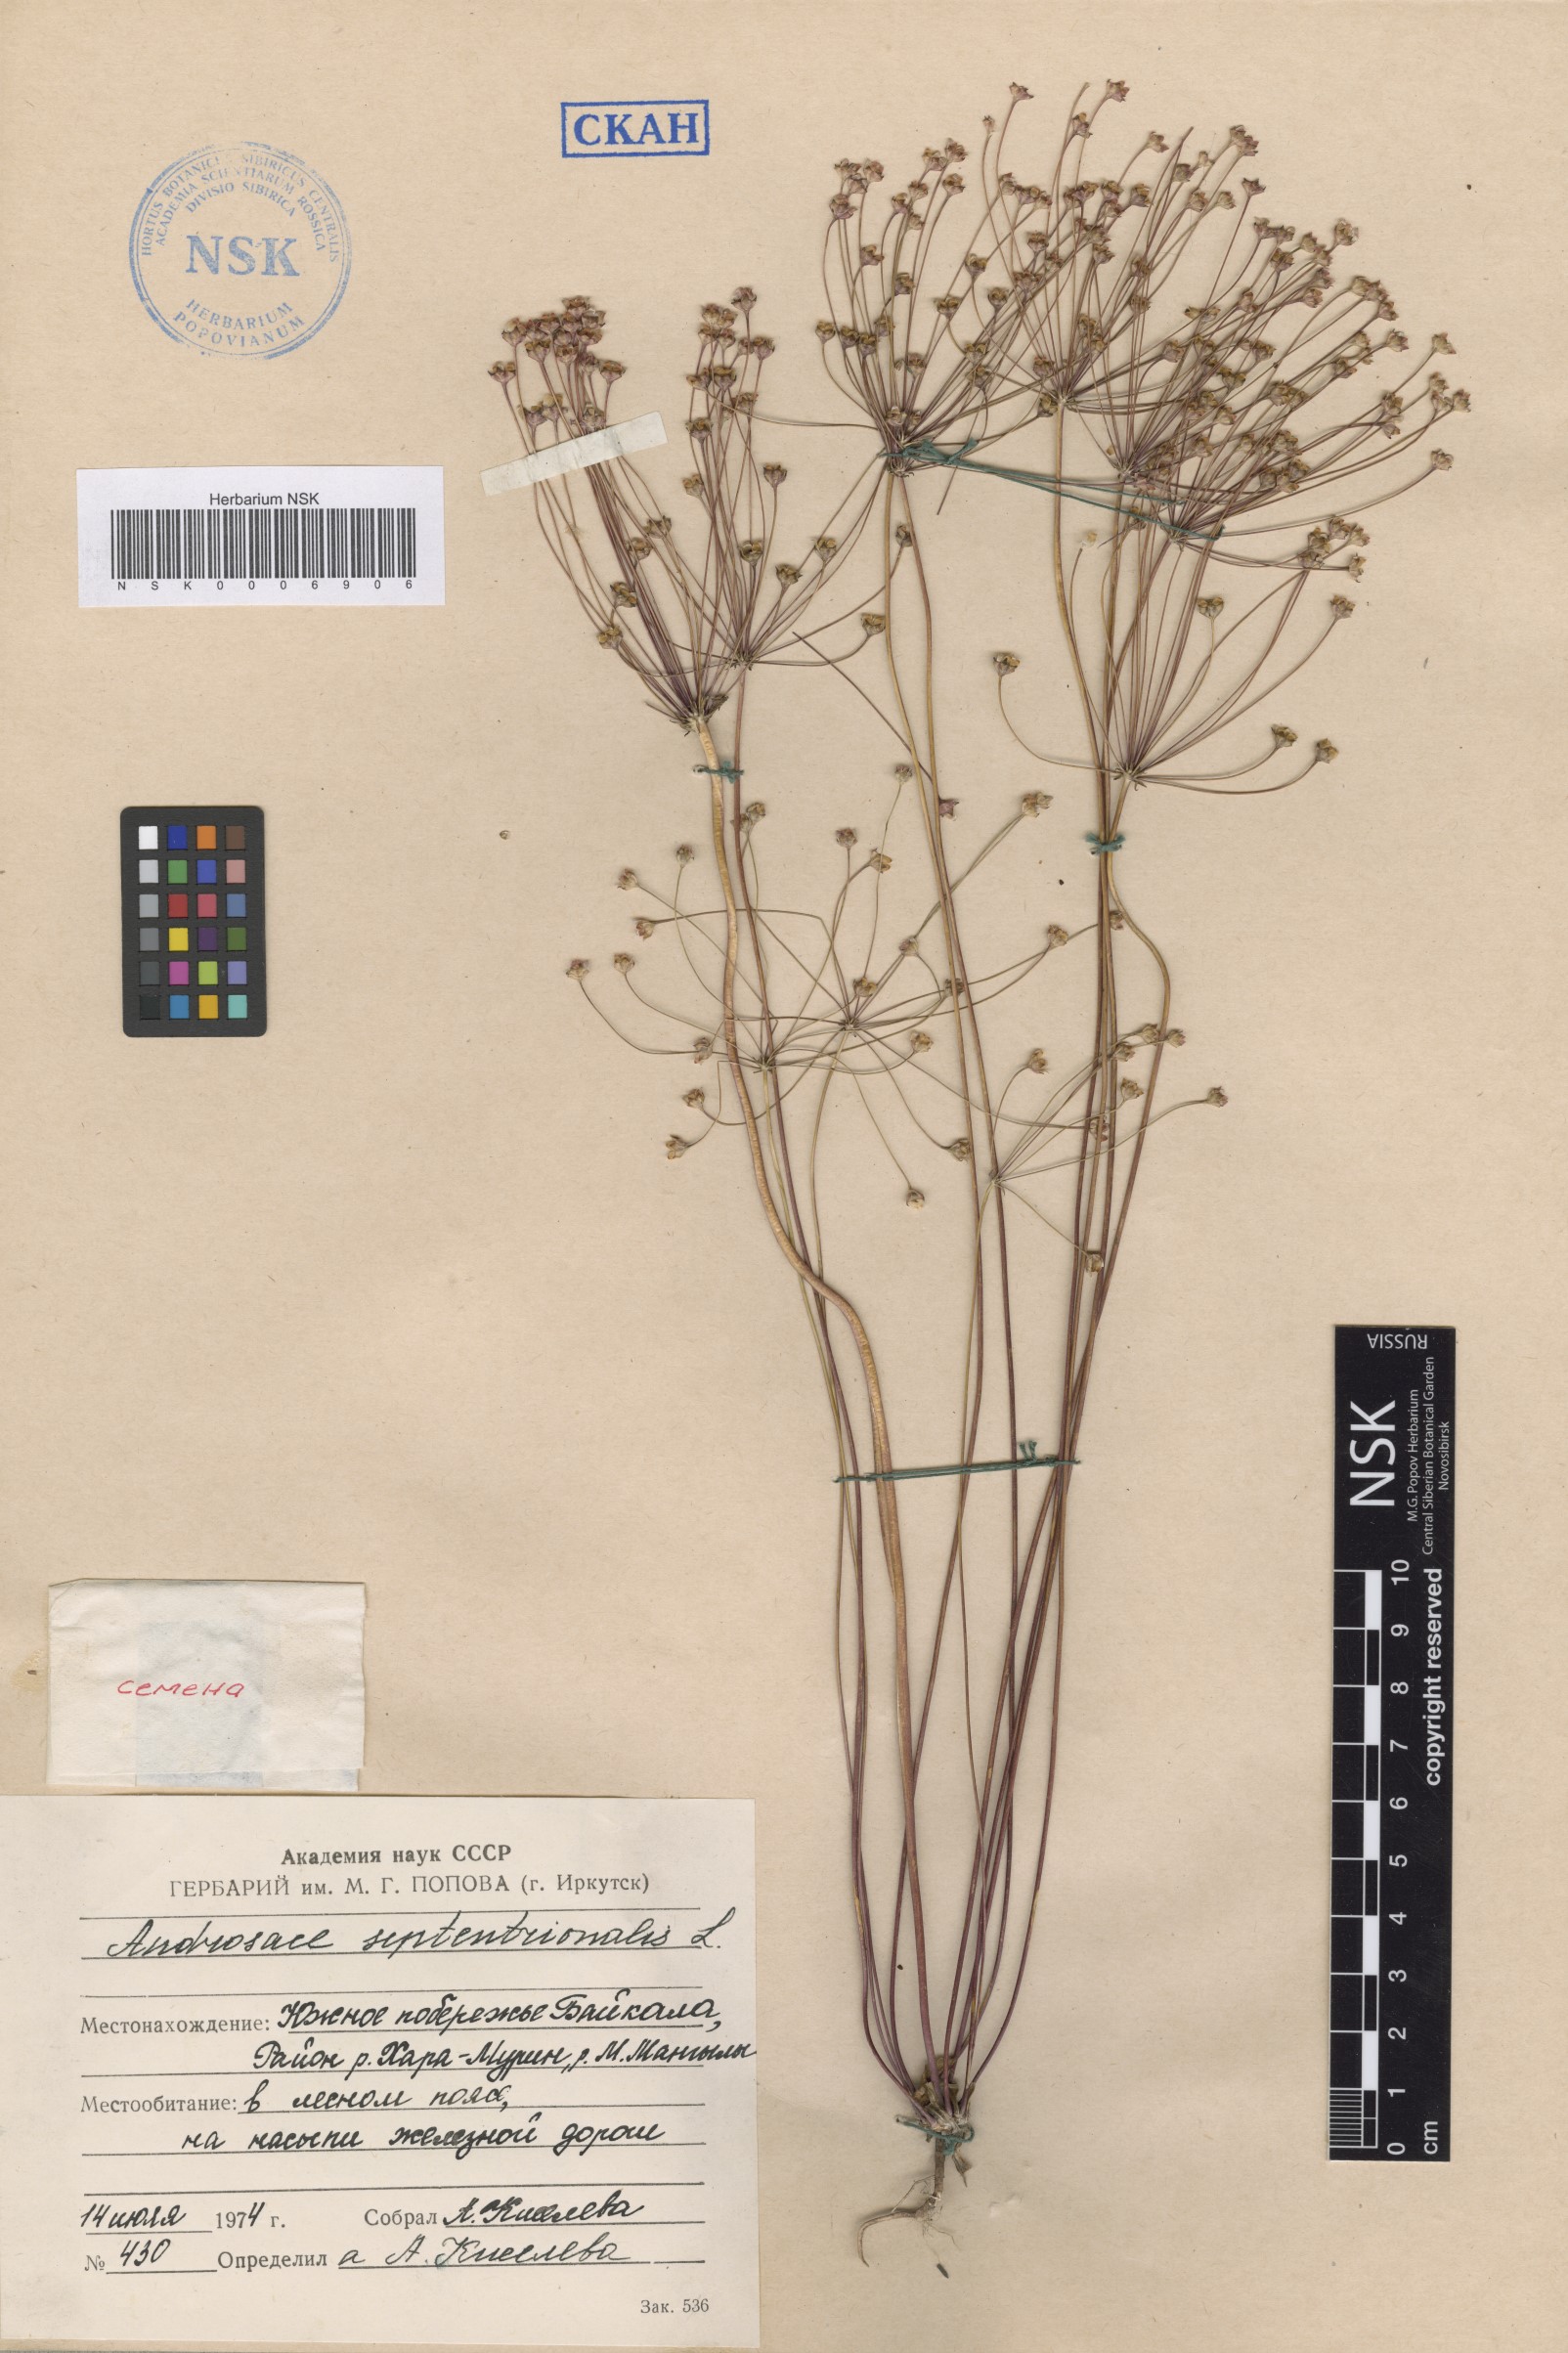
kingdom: Plantae
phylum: Tracheophyta
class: Magnoliopsida
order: Ericales
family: Primulaceae
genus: Androsace
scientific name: Androsace septentrionalis
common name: Hairy northern fairy-candelabra
